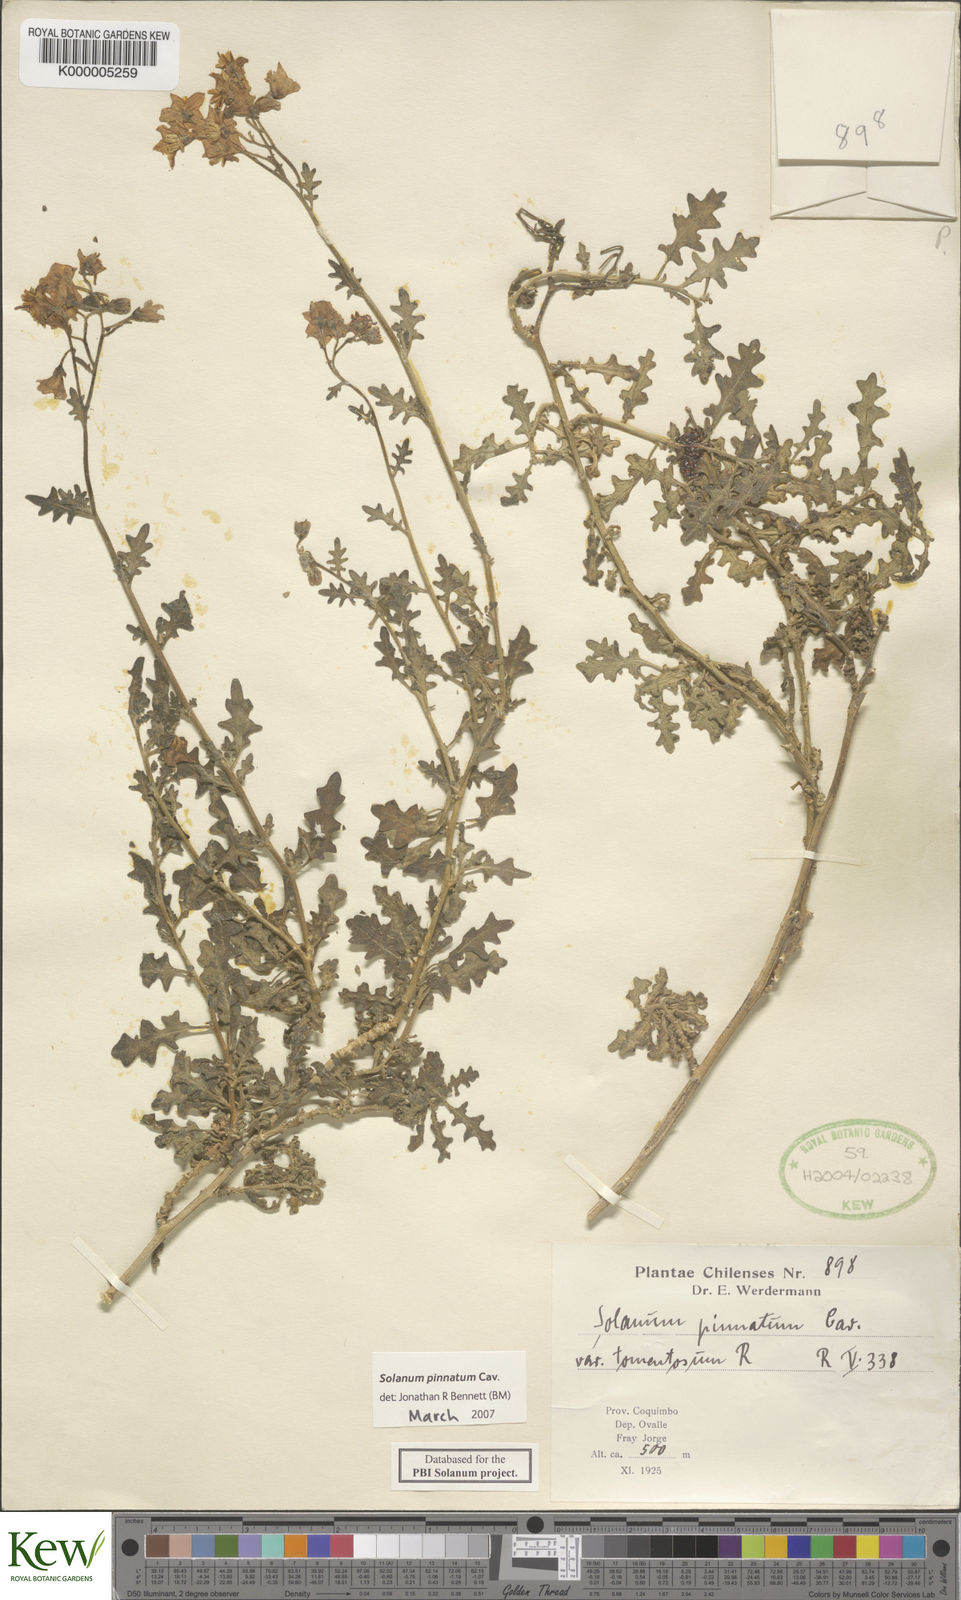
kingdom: Plantae
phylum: Tracheophyta
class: Magnoliopsida
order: Solanales
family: Solanaceae
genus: Solanum
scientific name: Solanum pinnatum
